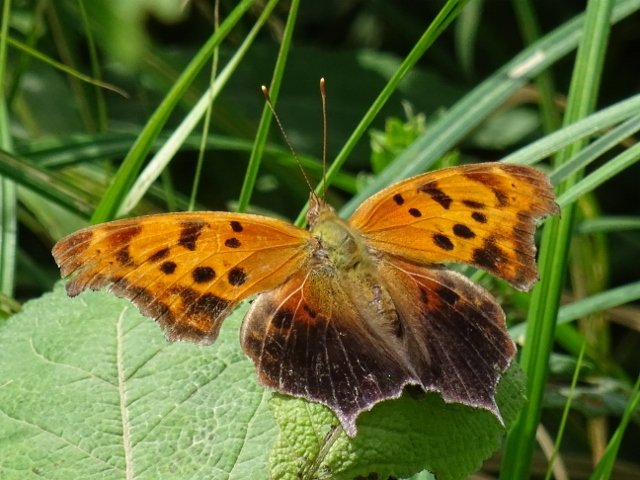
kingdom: Animalia
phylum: Arthropoda
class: Insecta
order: Lepidoptera
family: Nymphalidae
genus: Polygonia
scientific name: Polygonia interrogationis
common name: Question Mark
